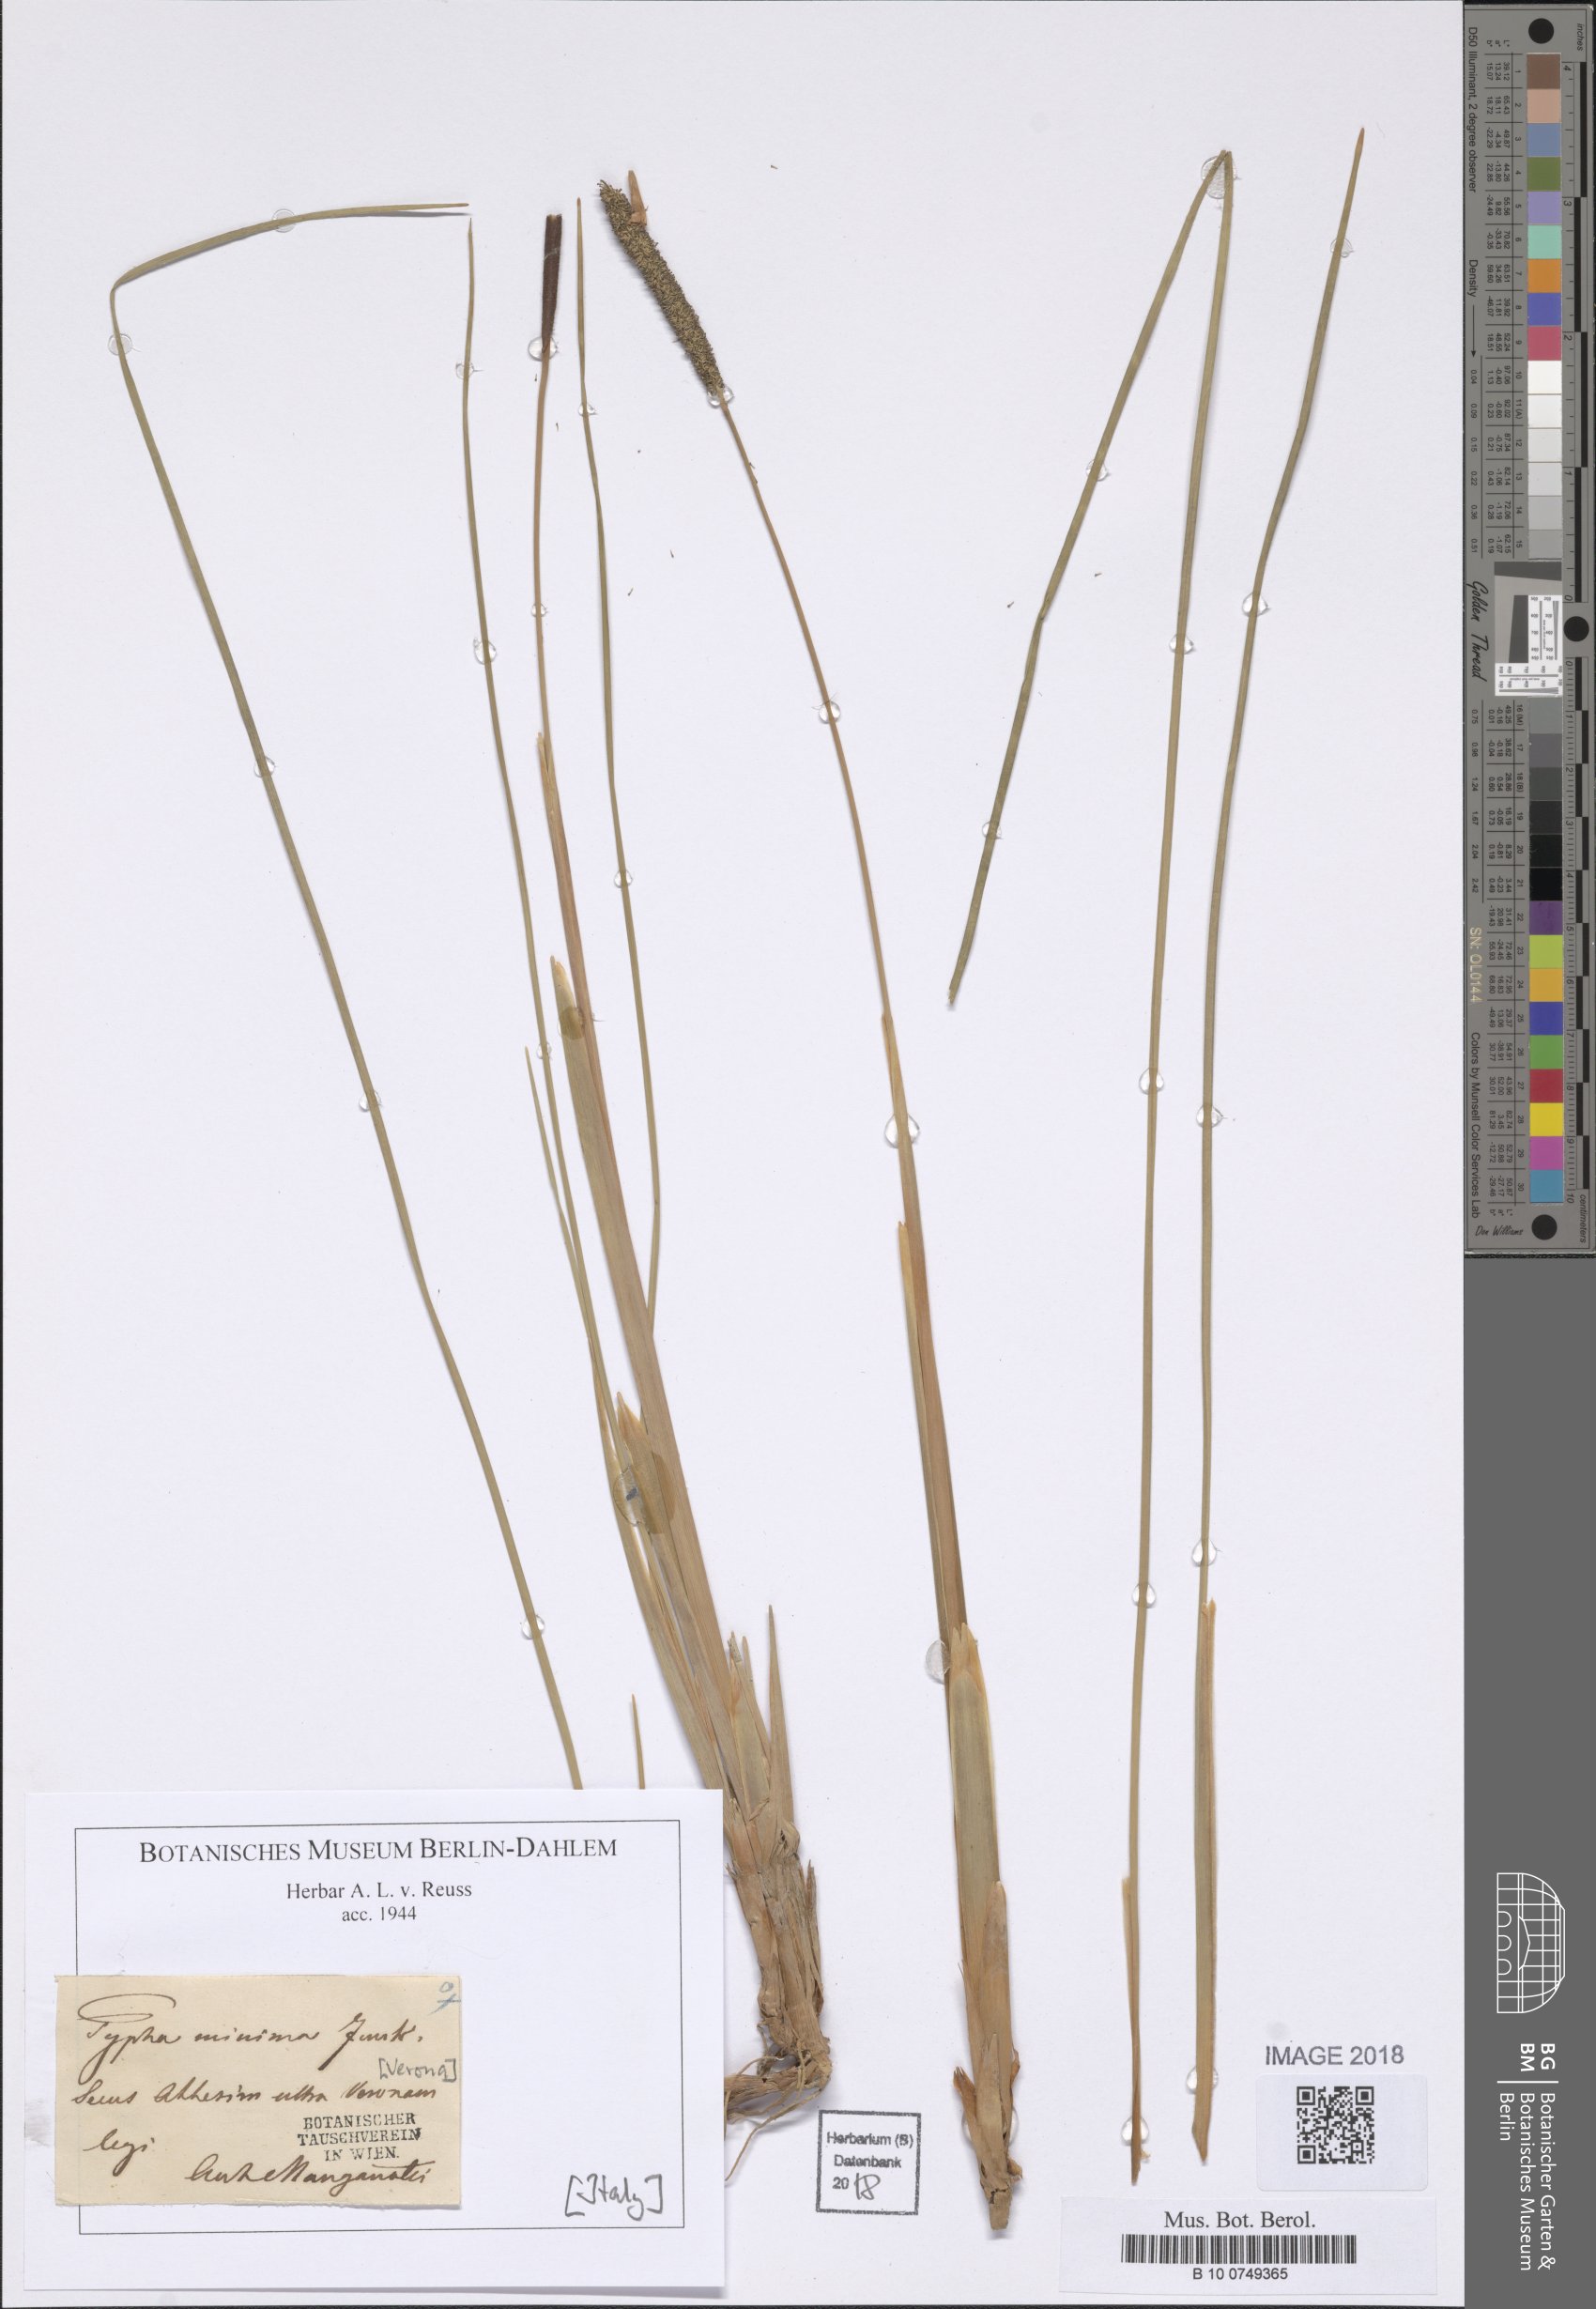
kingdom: Plantae
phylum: Tracheophyta
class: Liliopsida
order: Poales
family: Typhaceae
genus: Typha
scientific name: Typha minima
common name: Dwarf bulrush
